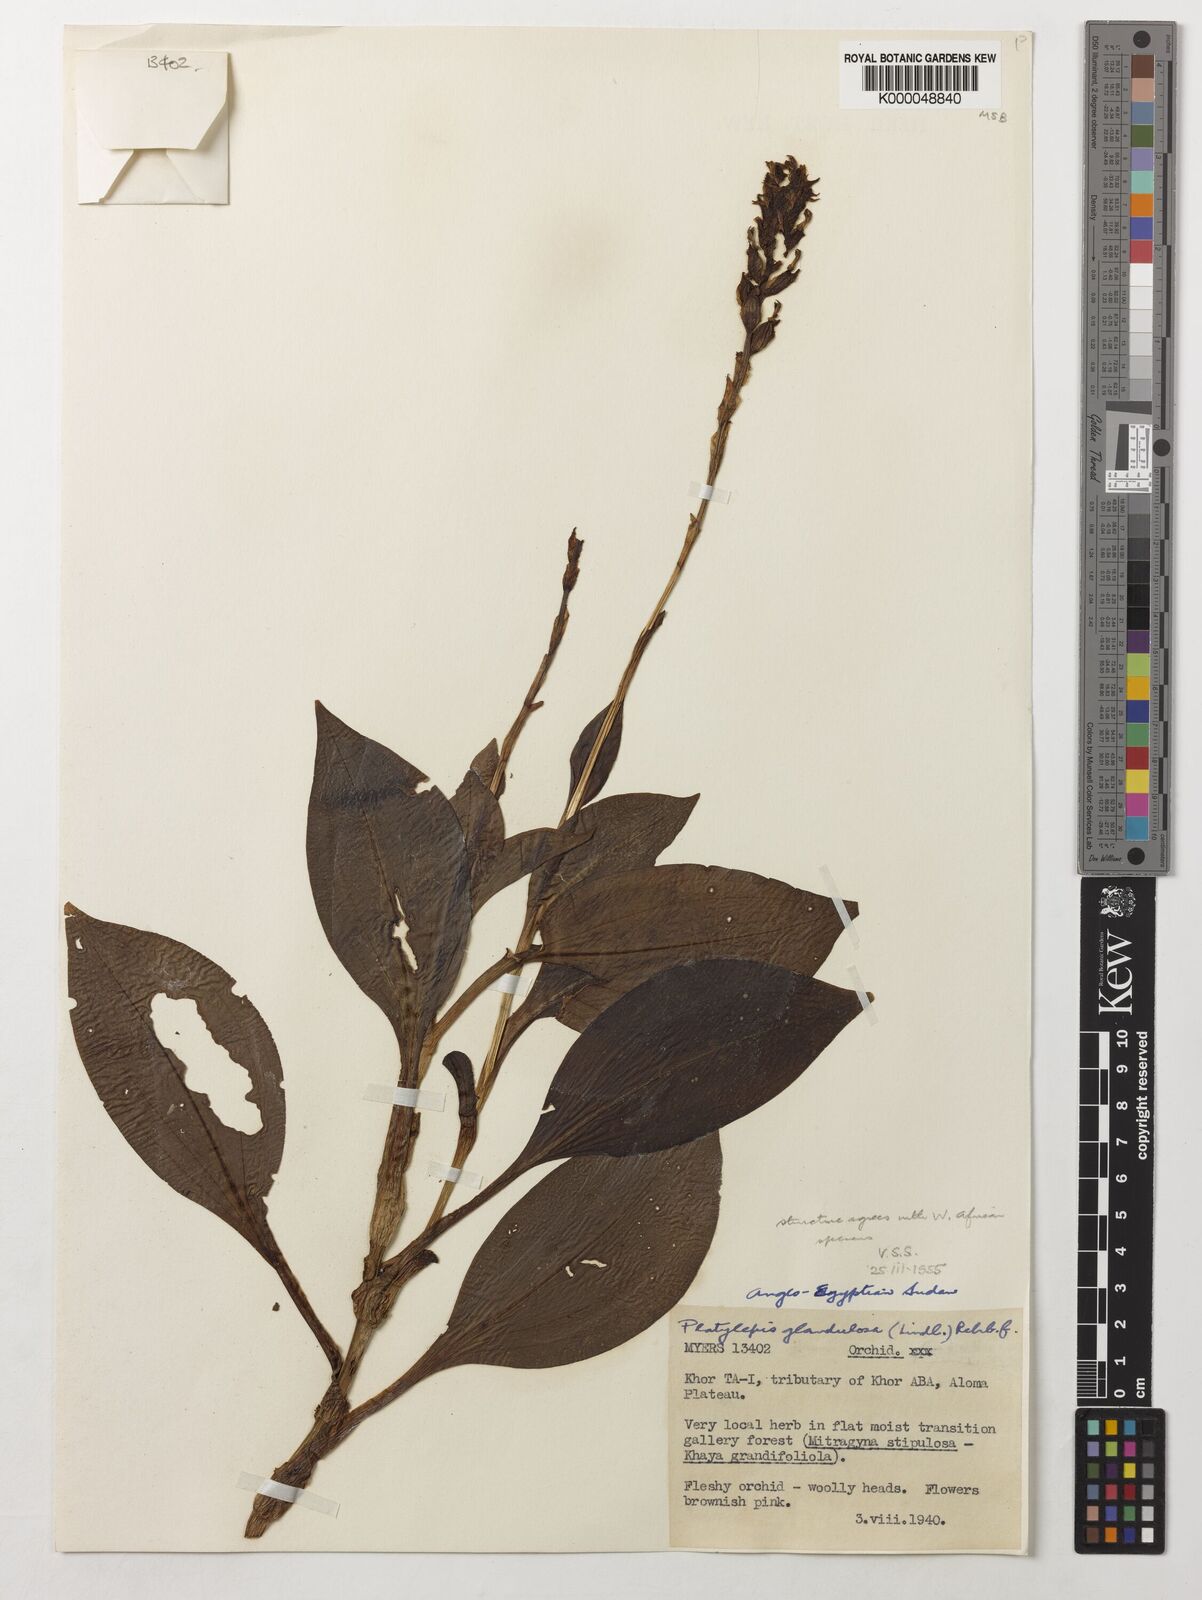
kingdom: Plantae
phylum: Tracheophyta
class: Liliopsida
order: Asparagales
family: Orchidaceae
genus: Platylepis
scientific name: Platylepis glandulosa
